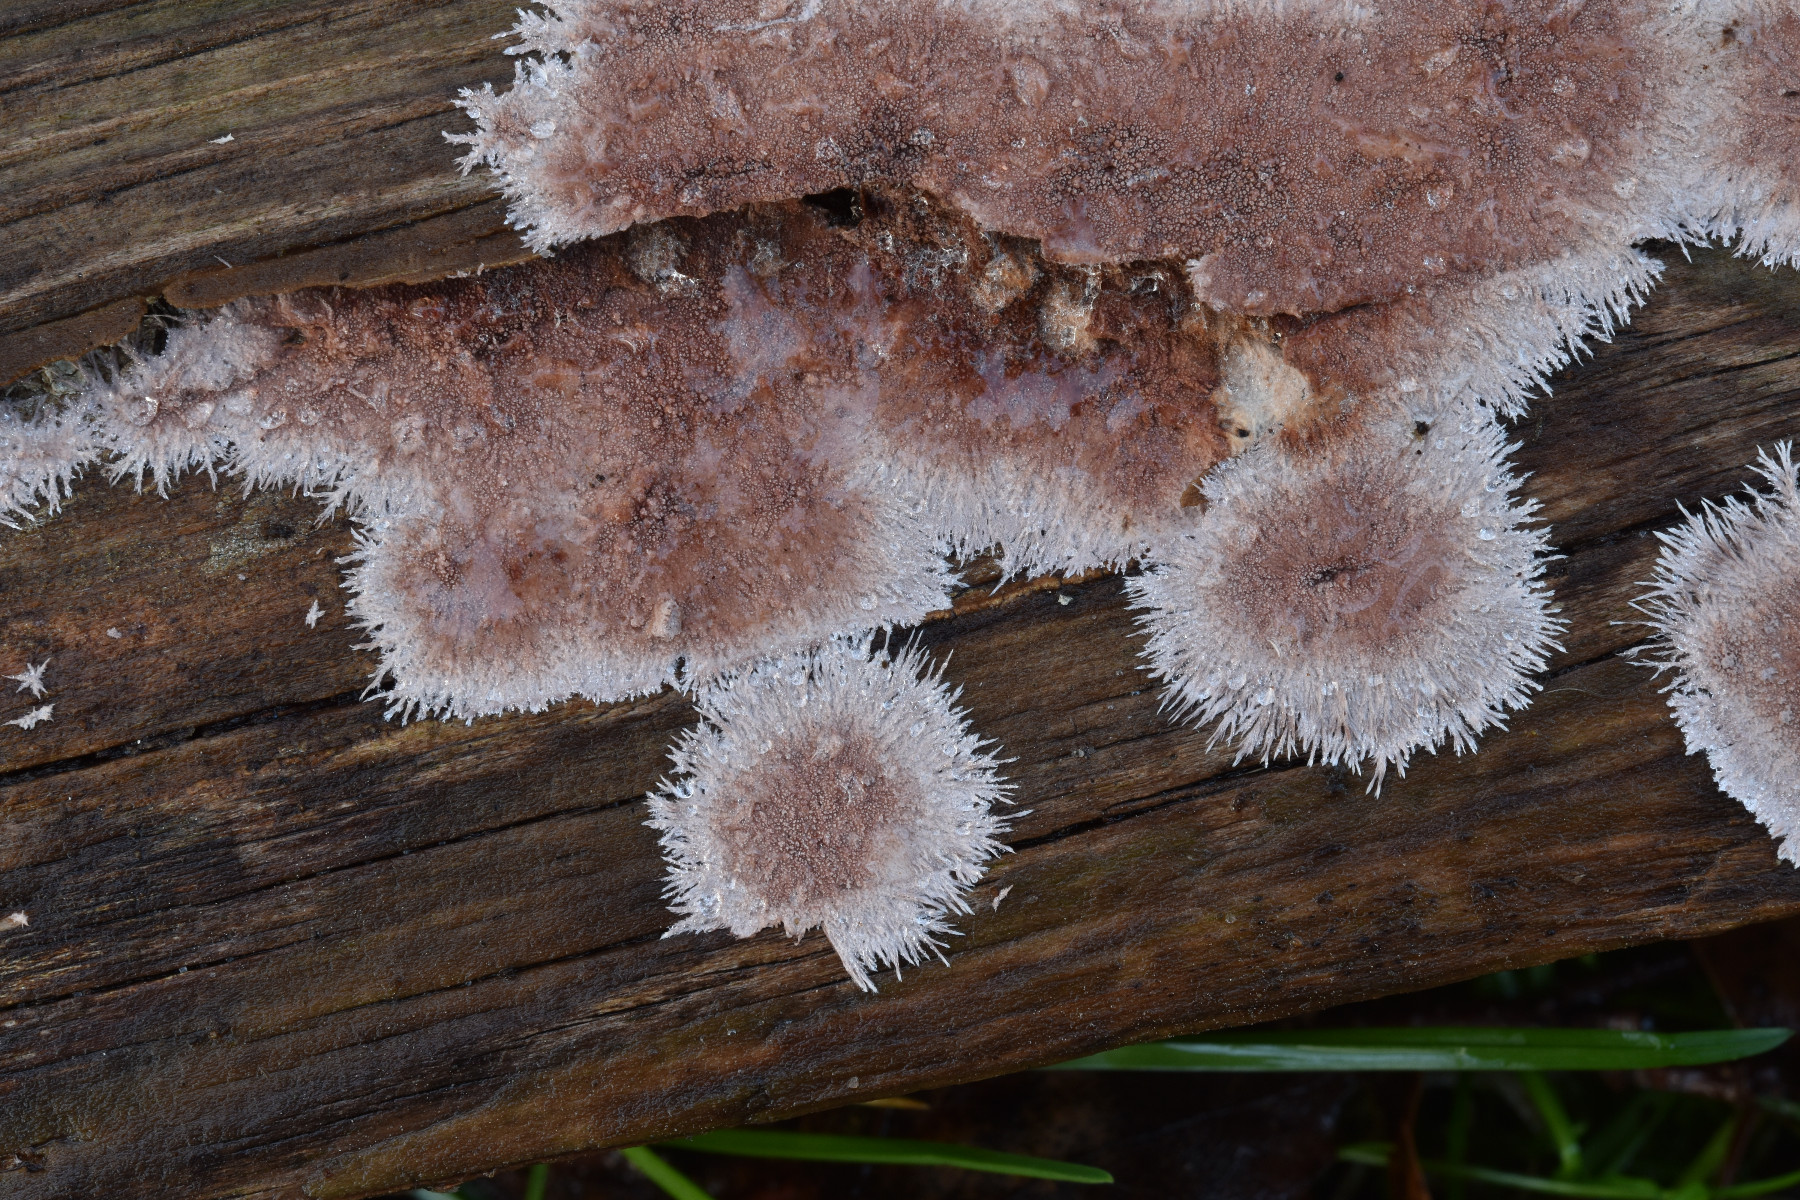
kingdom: Fungi
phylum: Basidiomycota
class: Agaricomycetes
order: Polyporales
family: Steccherinaceae
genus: Steccherinum
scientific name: Steccherinum fimbriatum
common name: trådet skønpig
